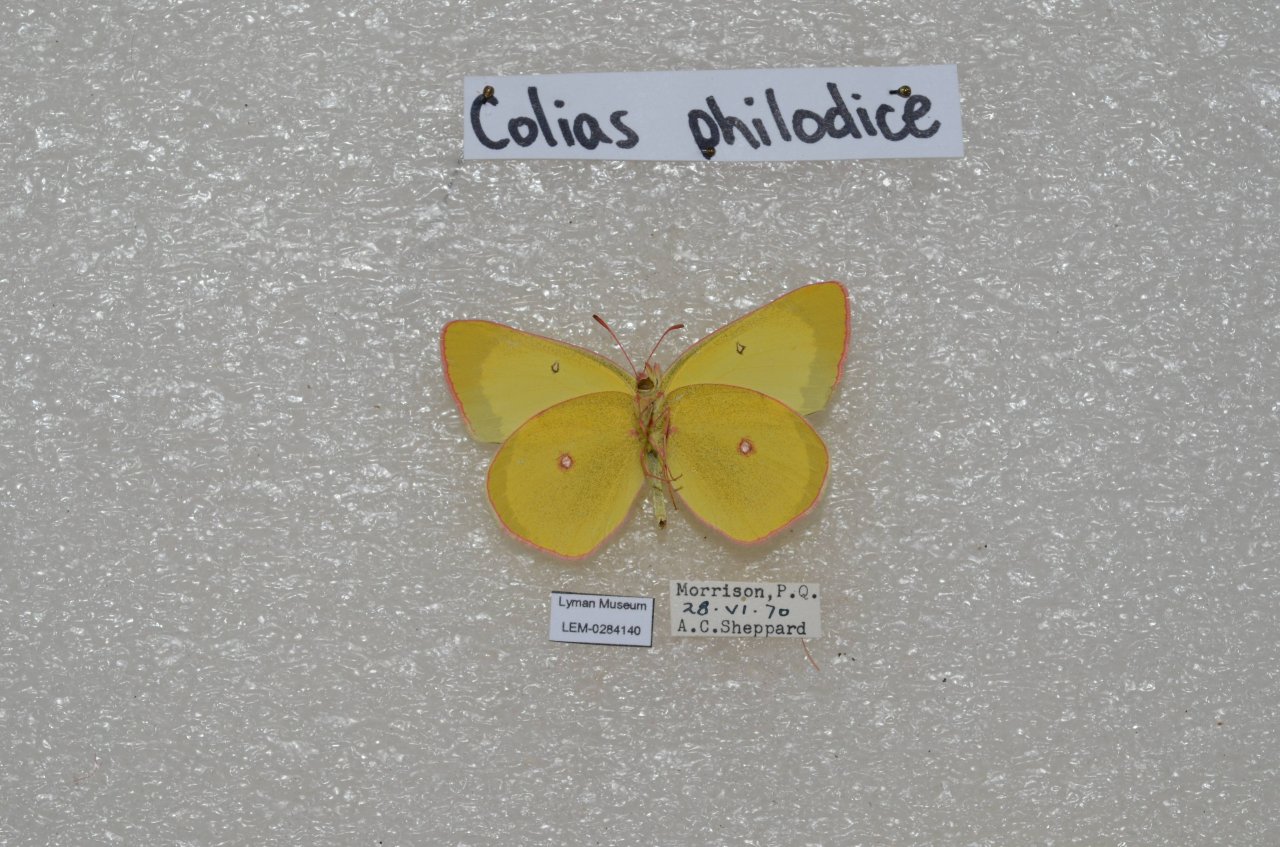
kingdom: Animalia
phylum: Arthropoda
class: Insecta
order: Lepidoptera
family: Pieridae
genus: Colias
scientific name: Colias interior
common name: Pink-edged Sulphur
